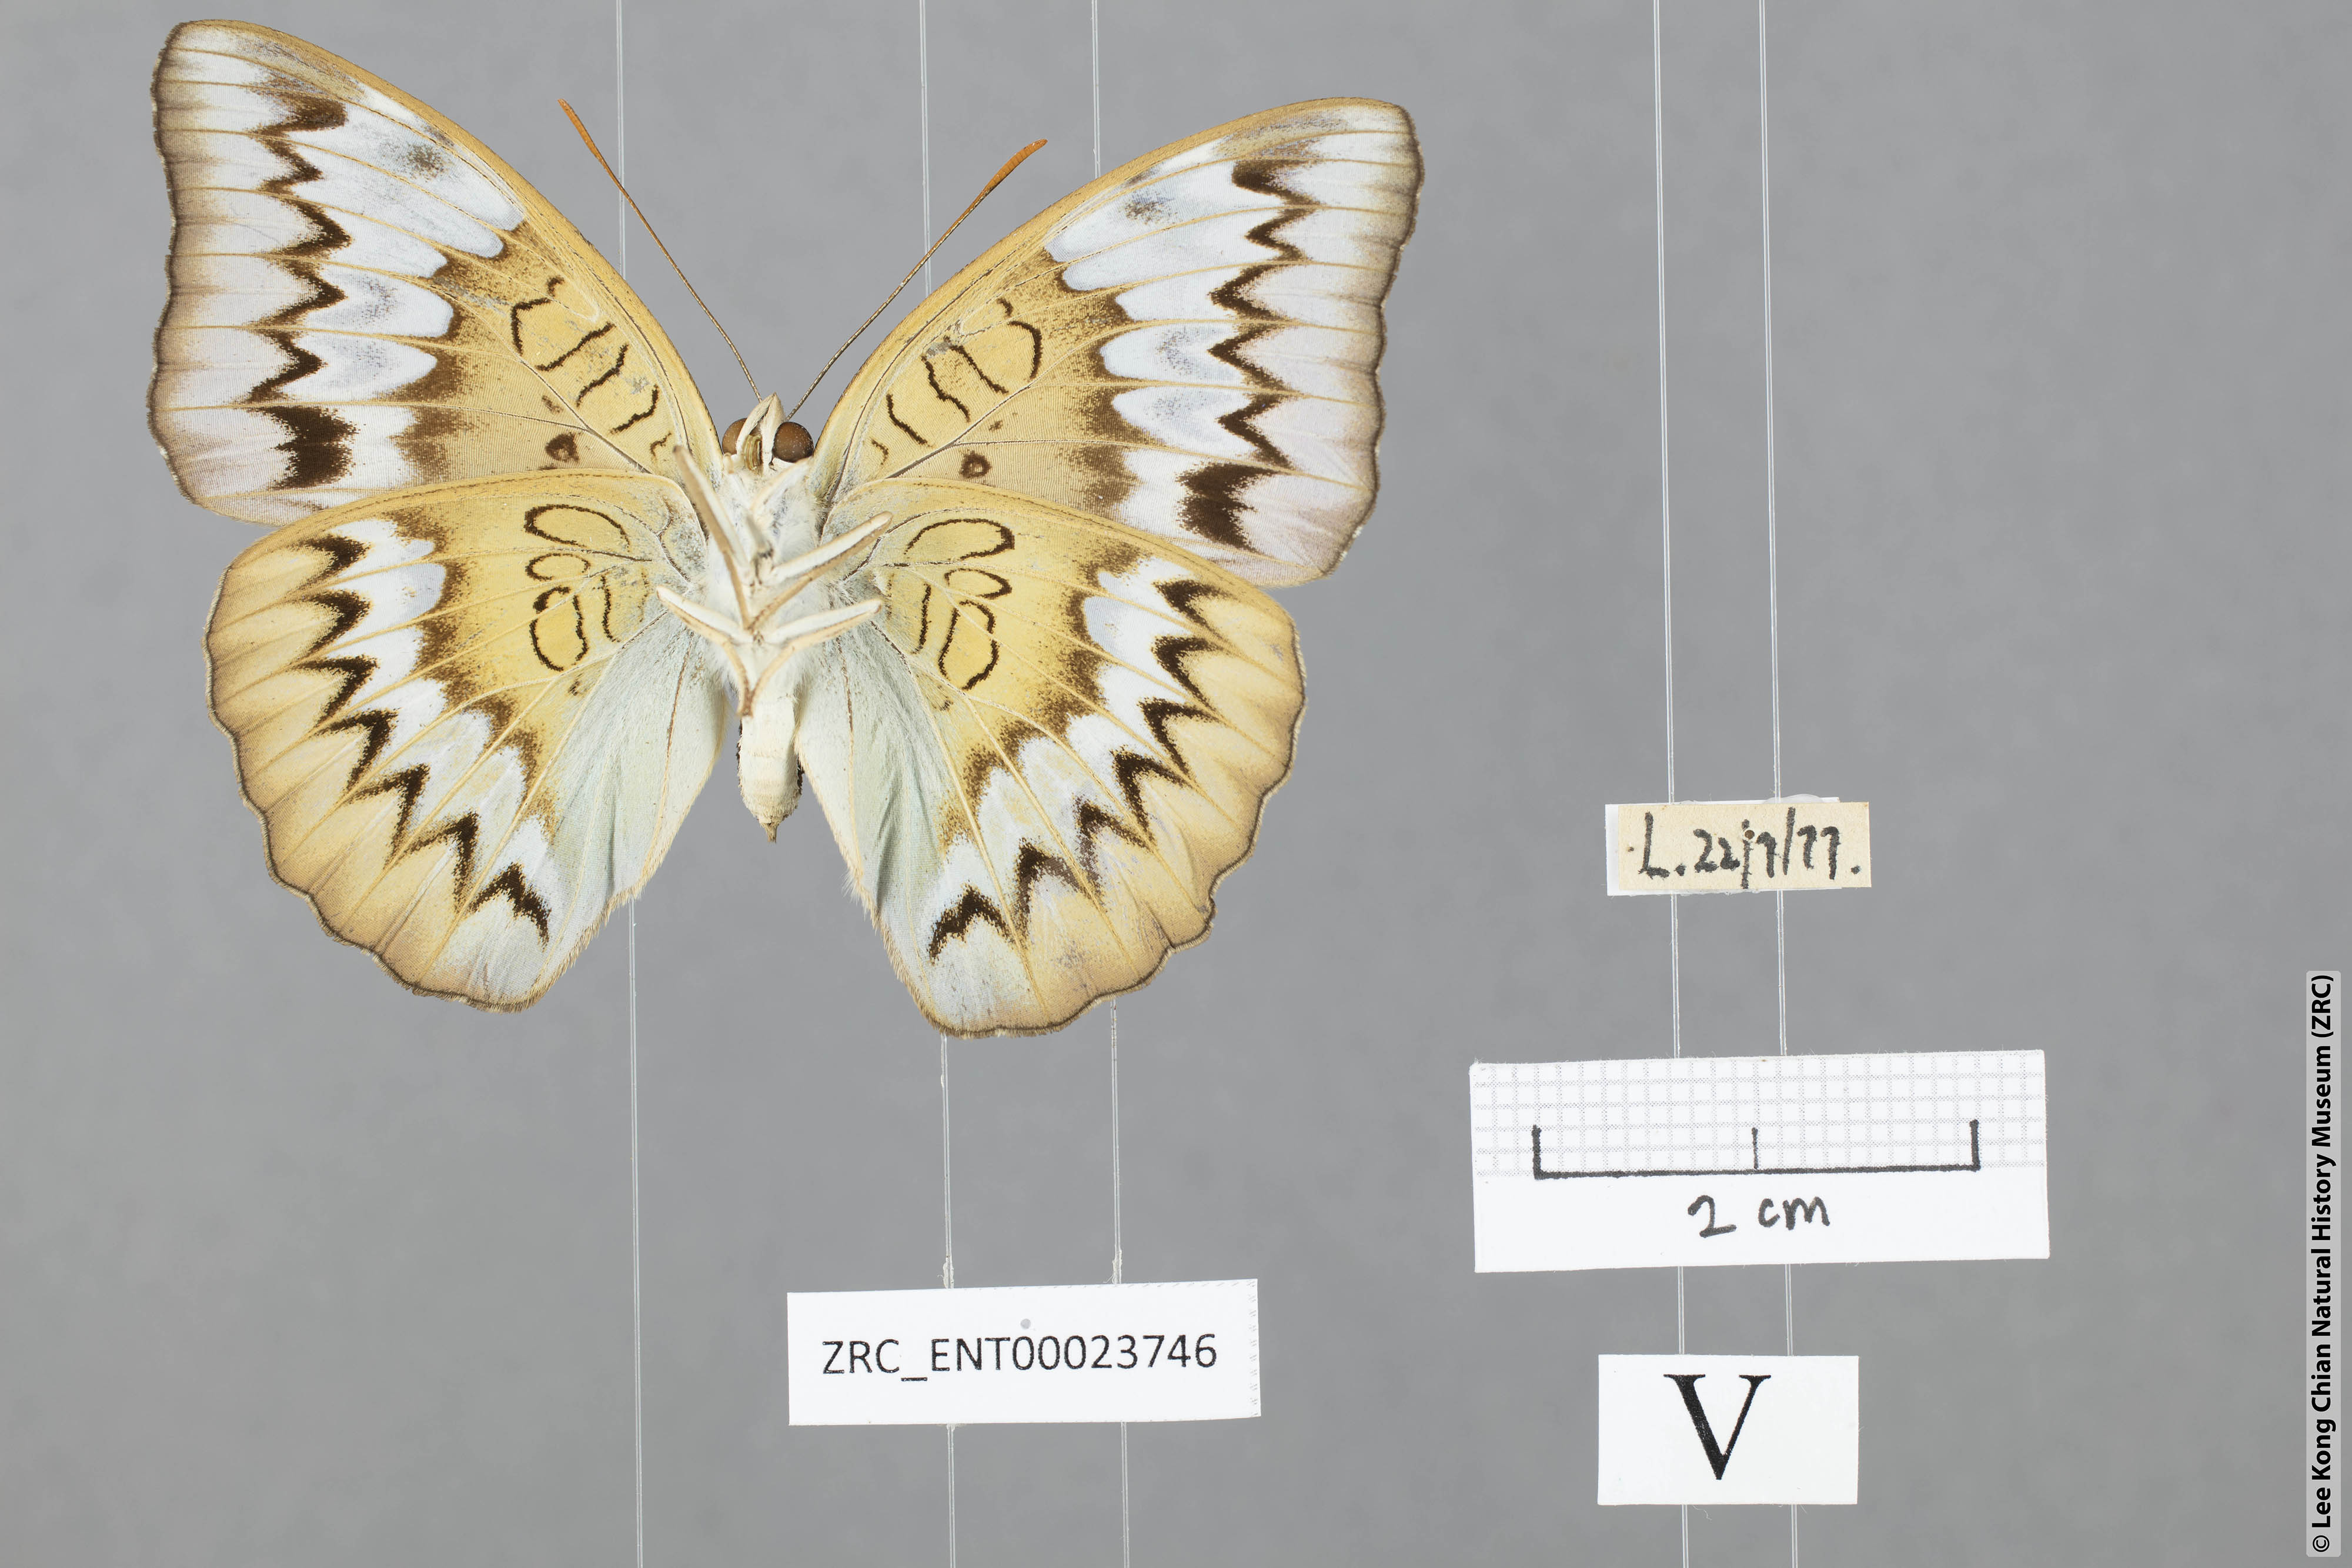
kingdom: Animalia
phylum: Arthropoda
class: Insecta
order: Lepidoptera
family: Nymphalidae
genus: Euthalia
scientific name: Euthalia monina
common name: Powdered baron
